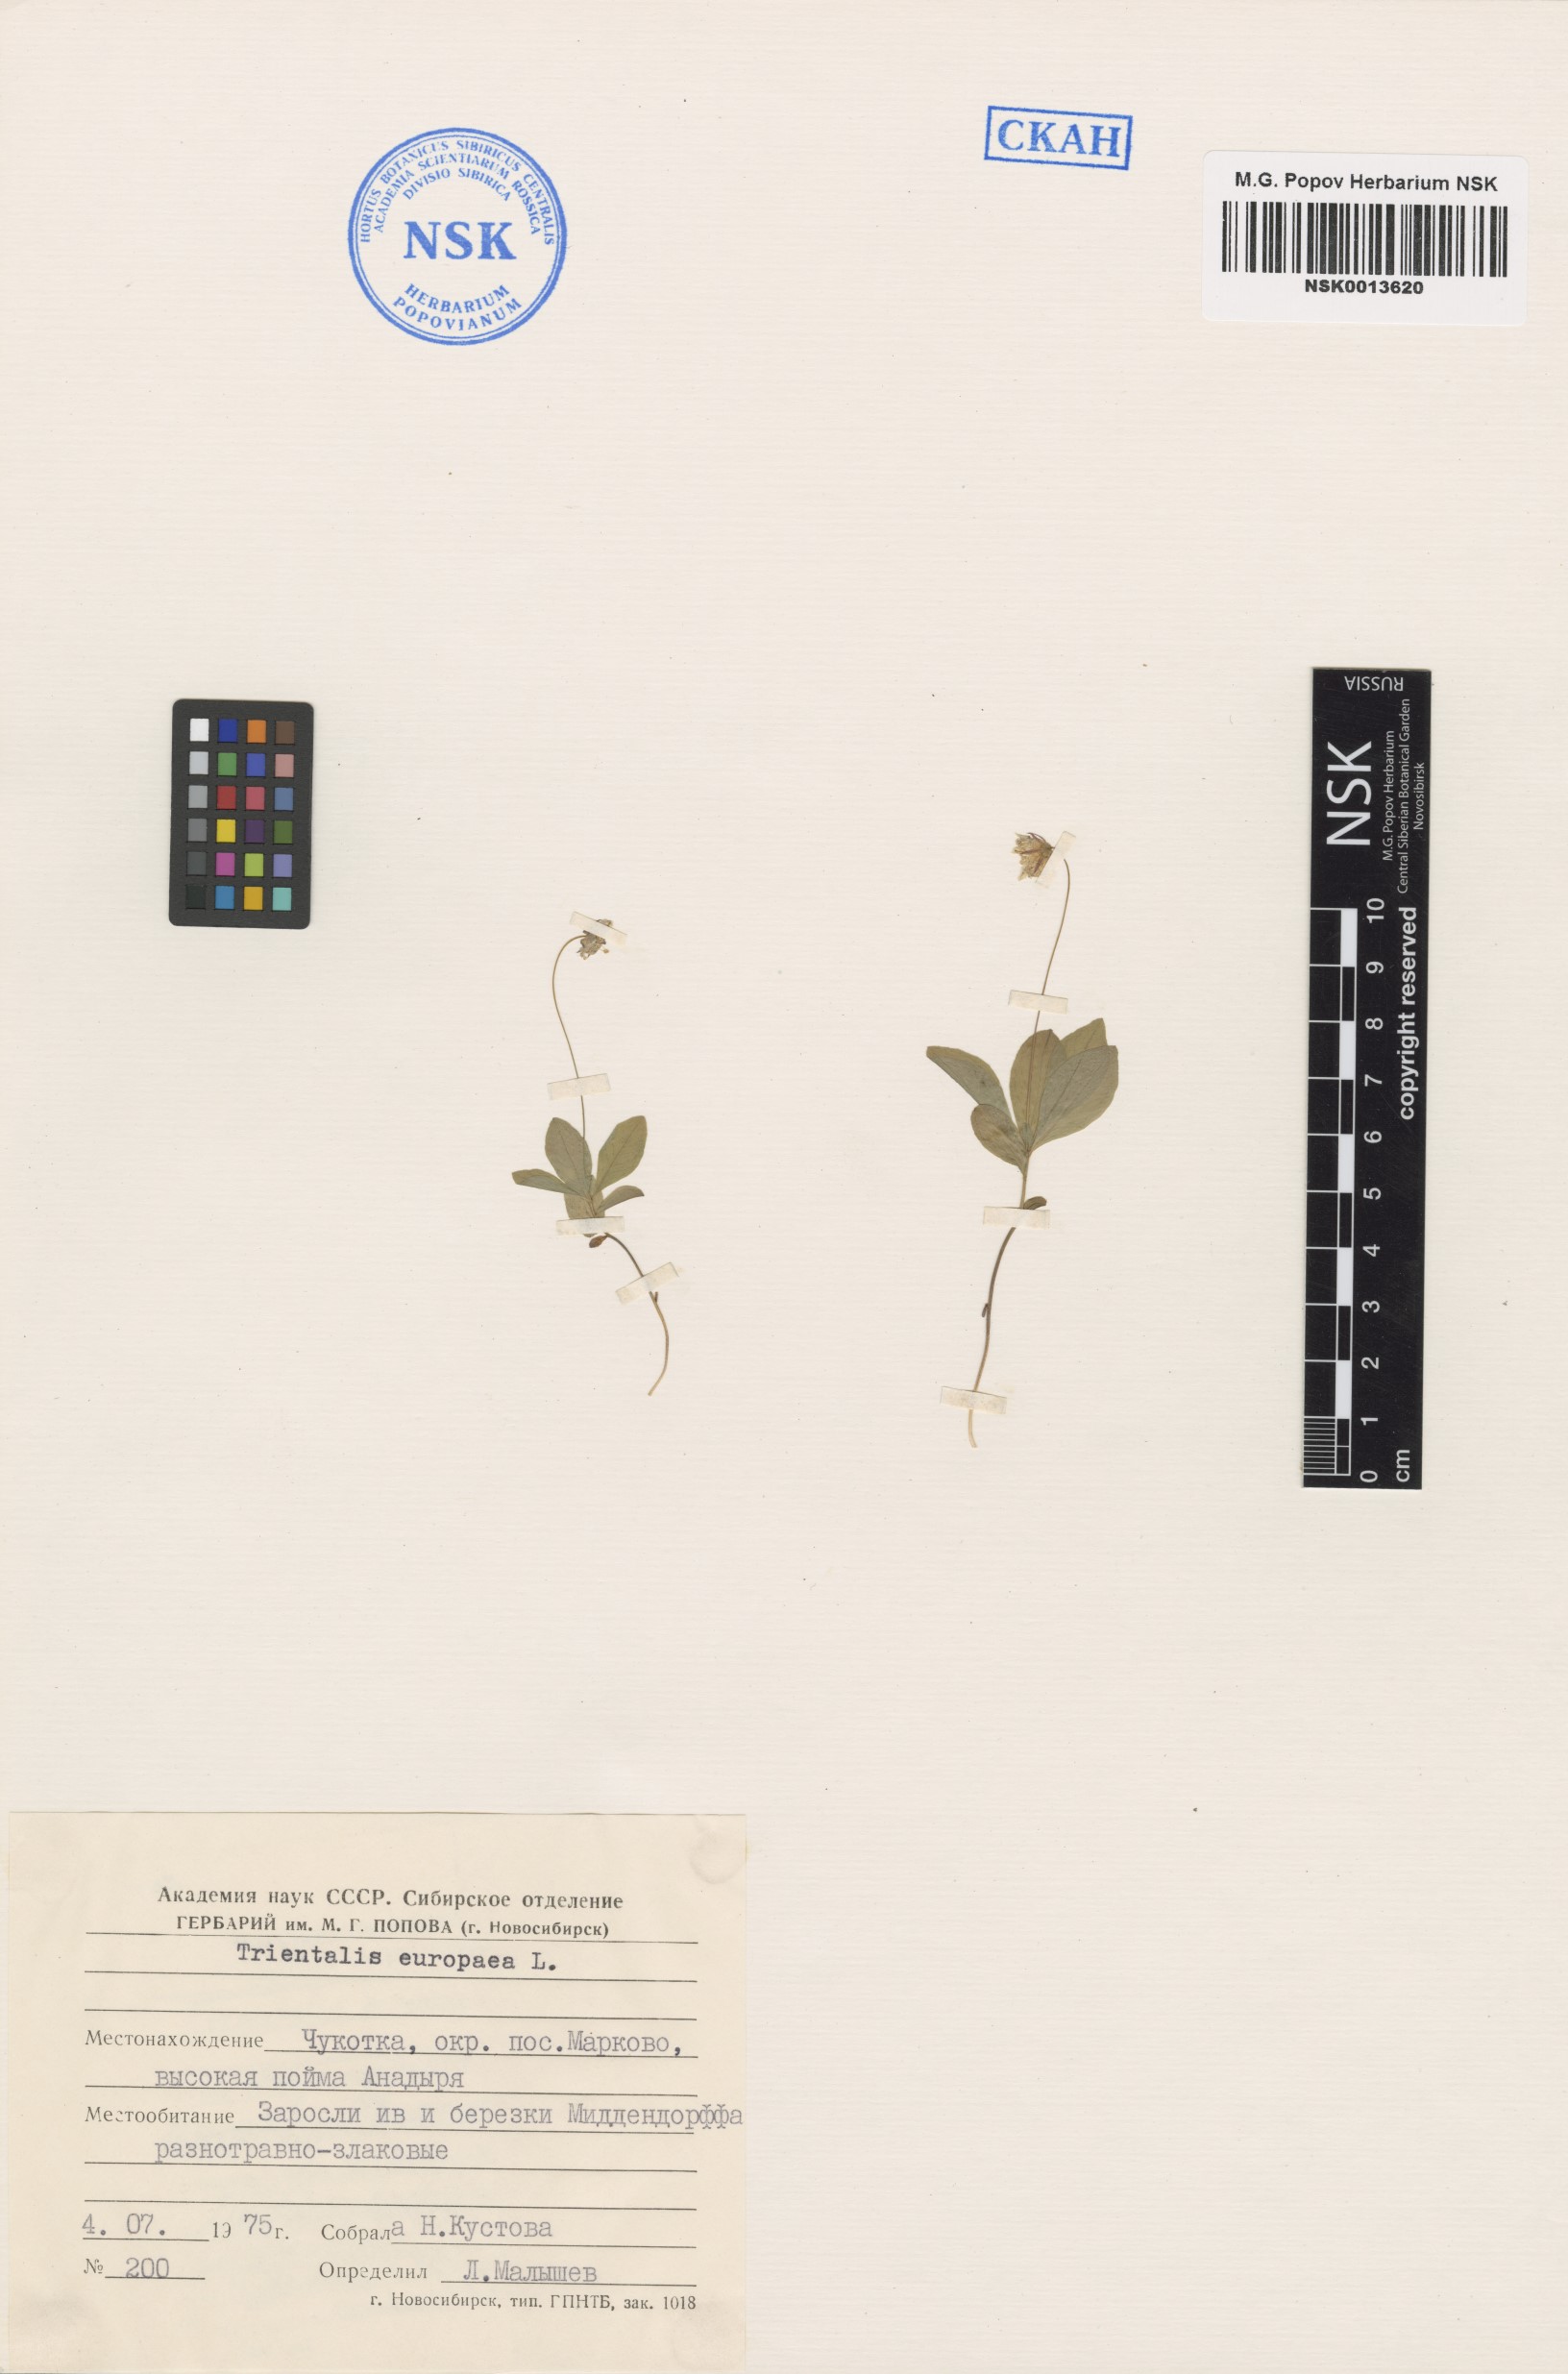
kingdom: Plantae
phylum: Tracheophyta
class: Magnoliopsida
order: Ericales
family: Primulaceae
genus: Lysimachia
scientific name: Lysimachia europaea
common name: Arctic starflower
